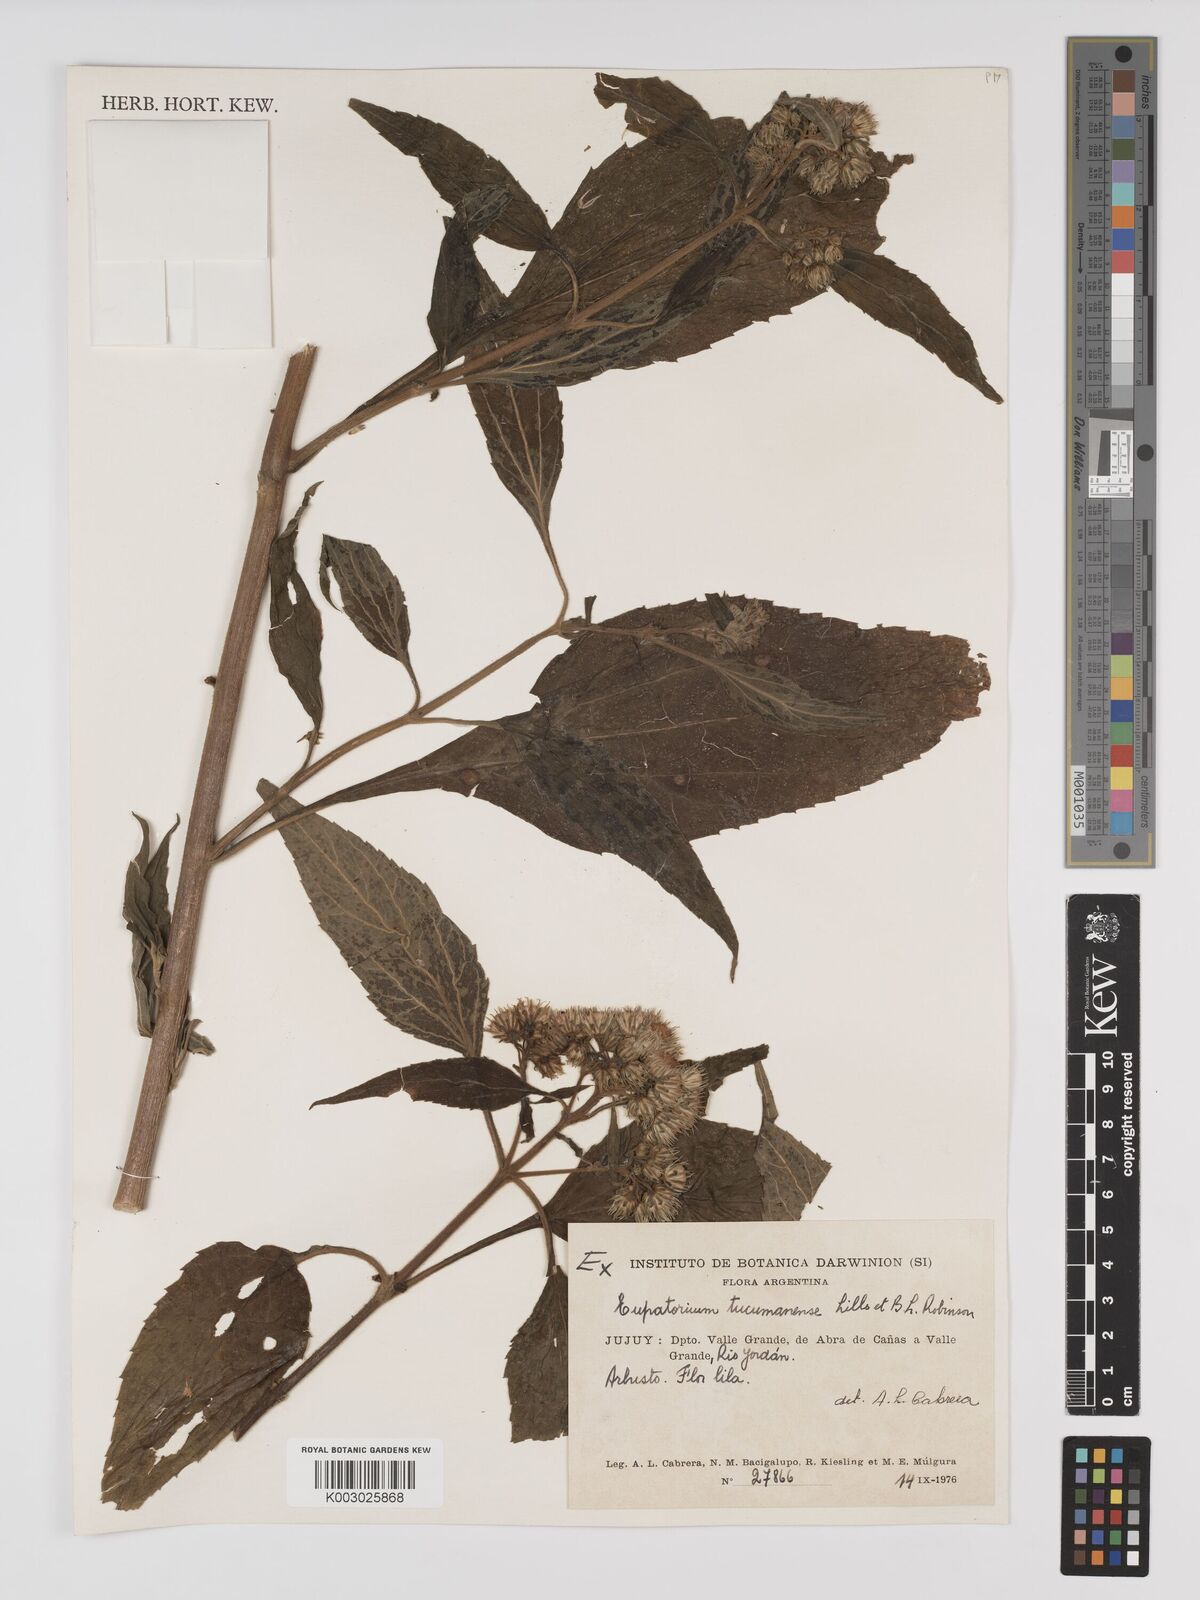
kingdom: Plantae
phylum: Tracheophyta
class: Magnoliopsida
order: Asterales
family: Asteraceae
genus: Ayapanopsis
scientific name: Ayapanopsis tucumanensis
